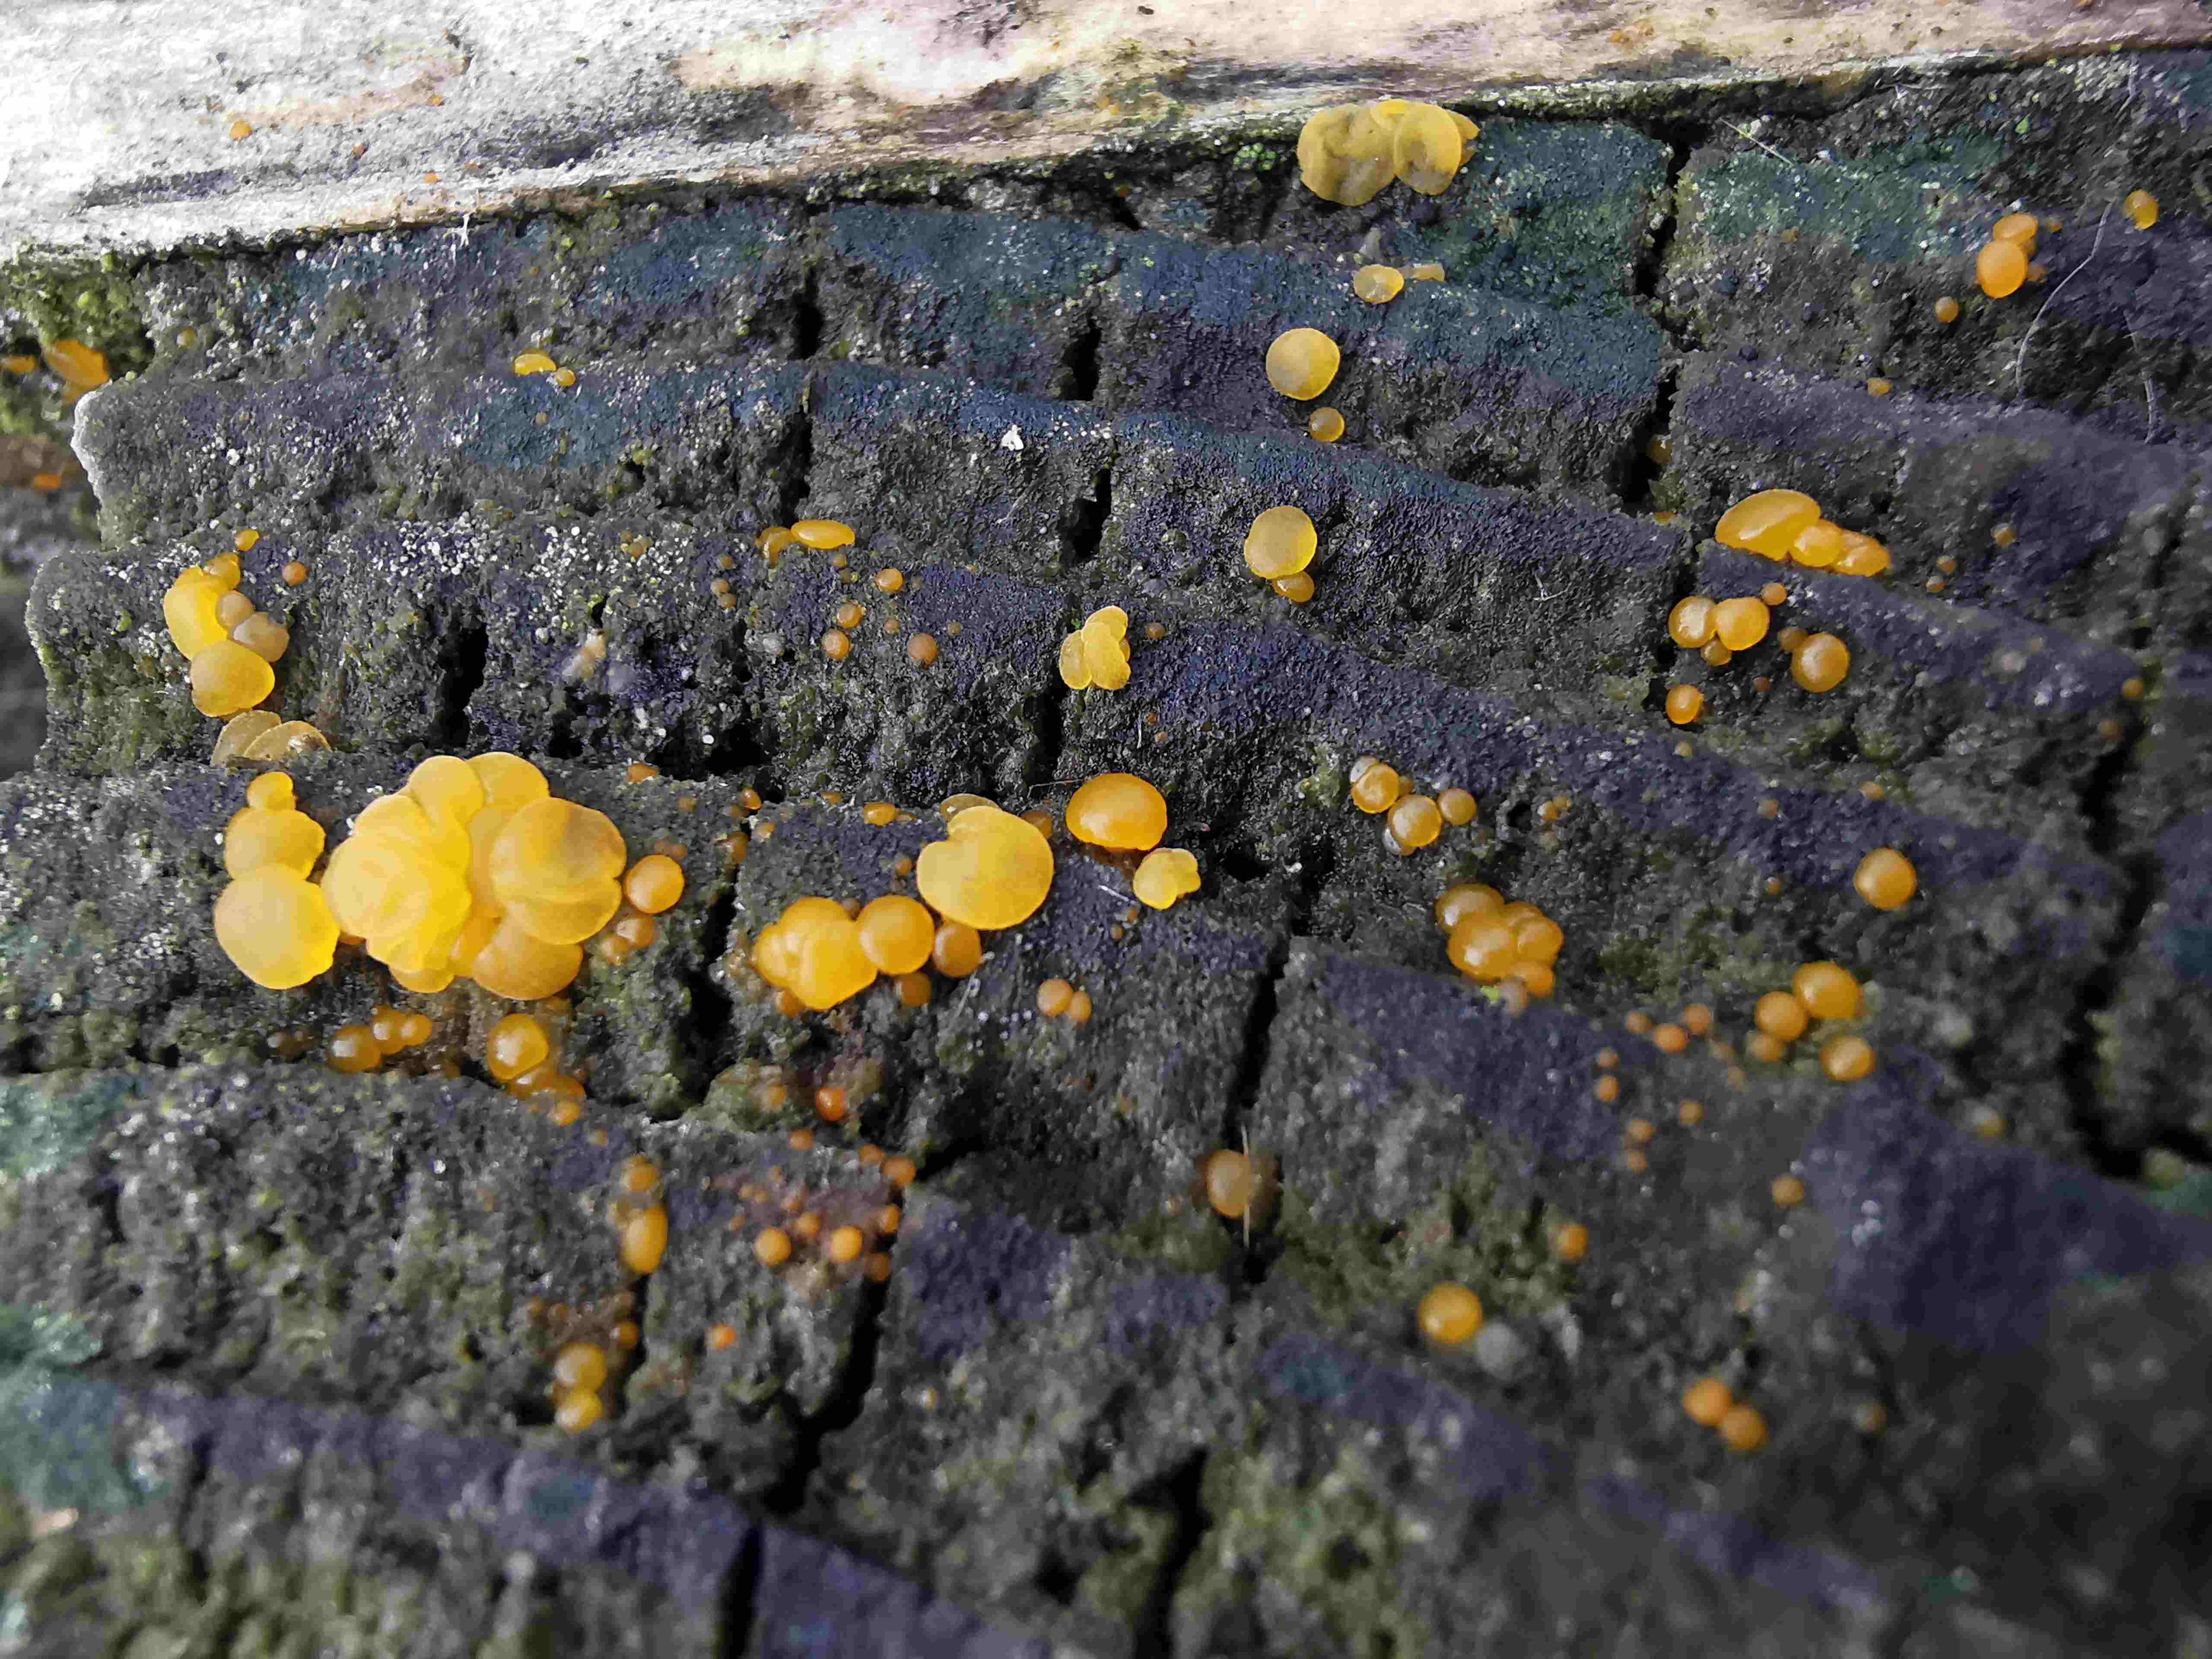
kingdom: Fungi
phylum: Basidiomycota
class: Dacrymycetes
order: Dacrymycetales
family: Dacrymycetaceae
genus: Dacrymyces
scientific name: Dacrymyces stillatus
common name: almindelig tåresvamp
